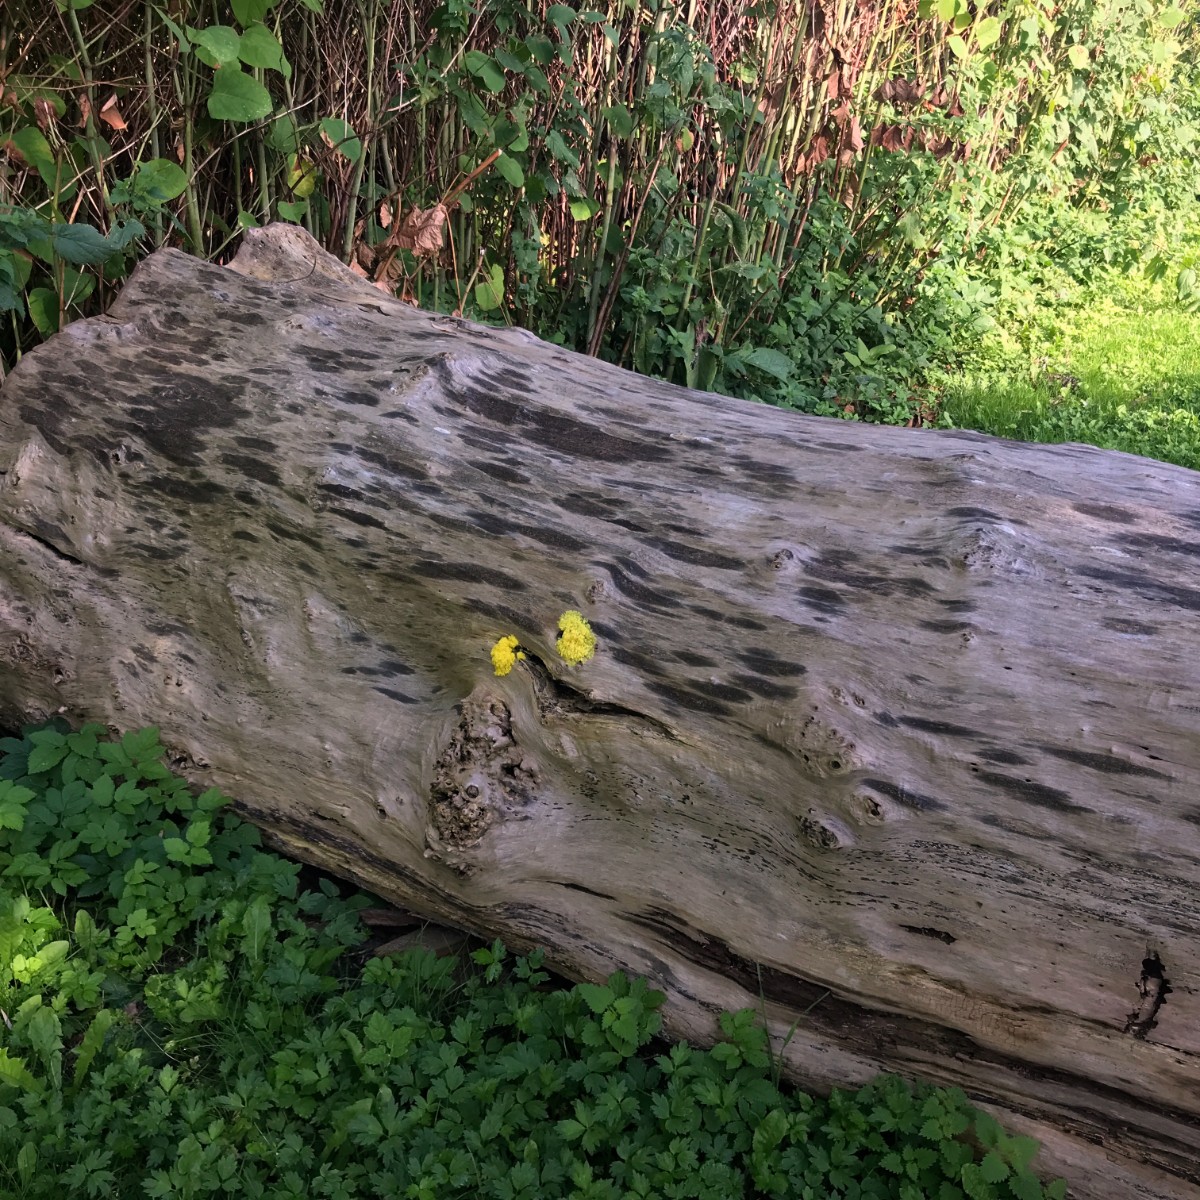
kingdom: Protozoa
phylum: Mycetozoa
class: Myxomycetes
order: Physarales
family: Physaraceae
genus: Fuligo
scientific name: Fuligo septica
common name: gul troldsmør
